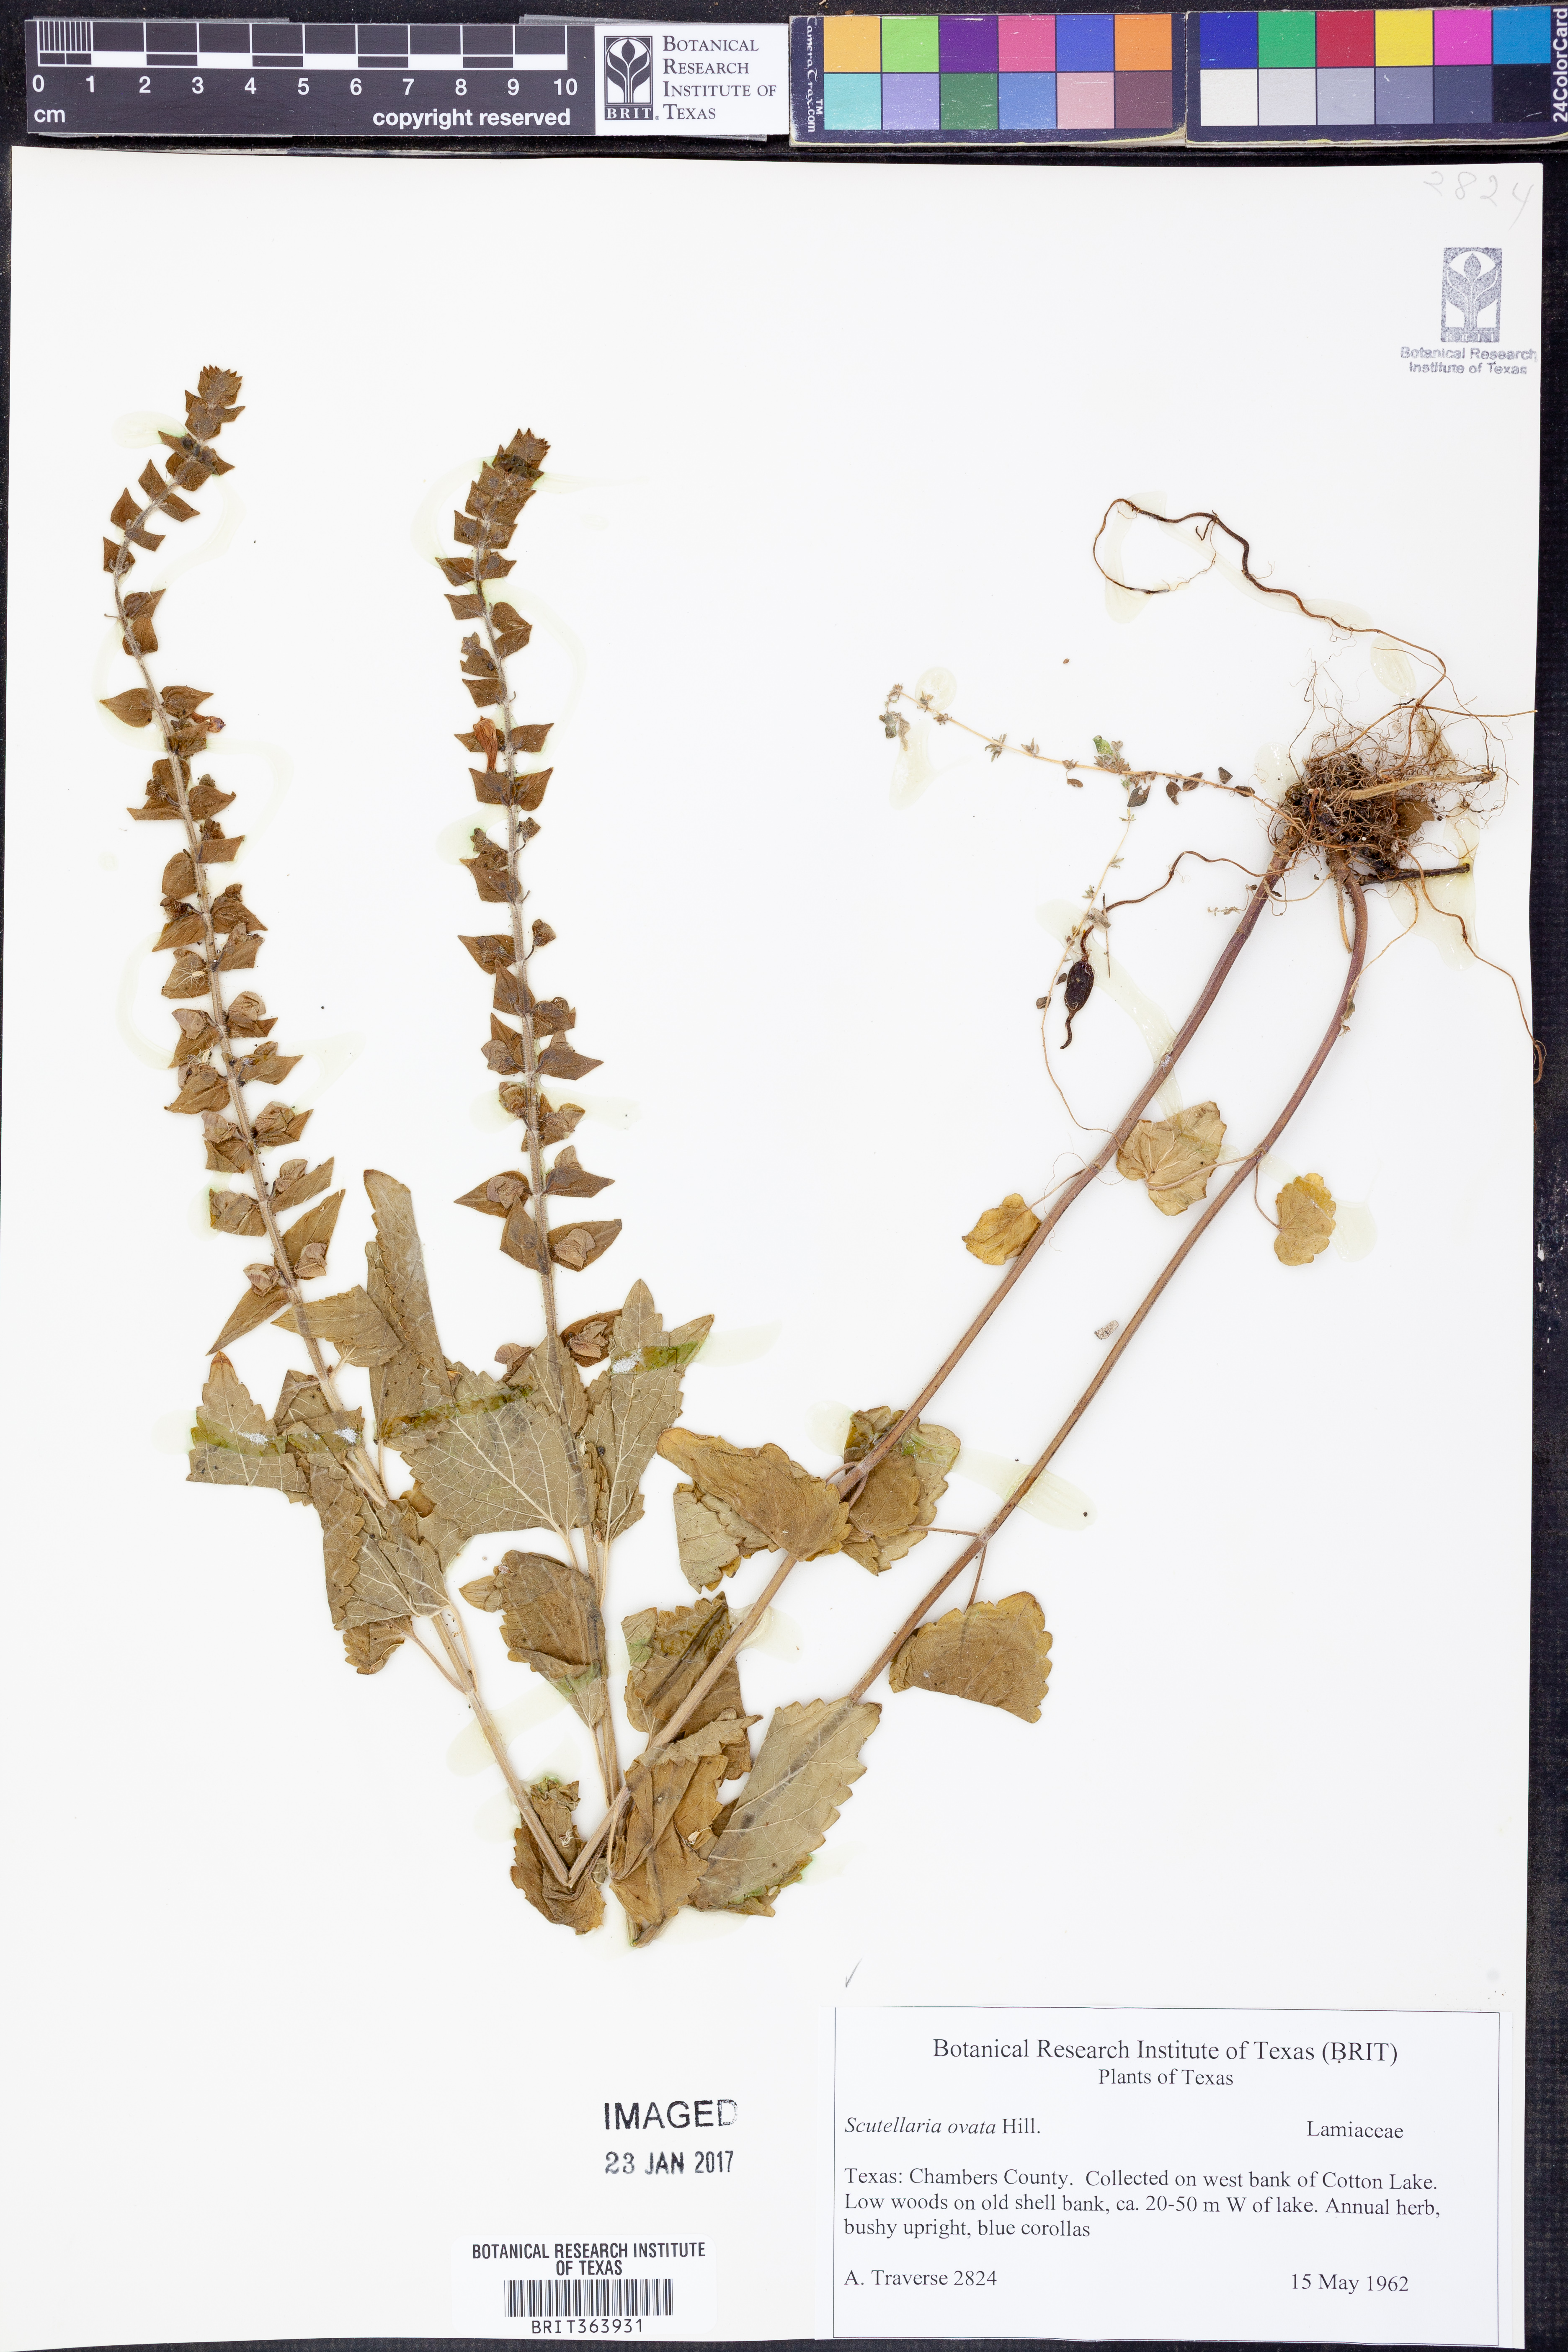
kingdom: Plantae
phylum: Tracheophyta
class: Magnoliopsida
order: Lamiales
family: Lamiaceae
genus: Scutellaria
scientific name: Scutellaria ovata
